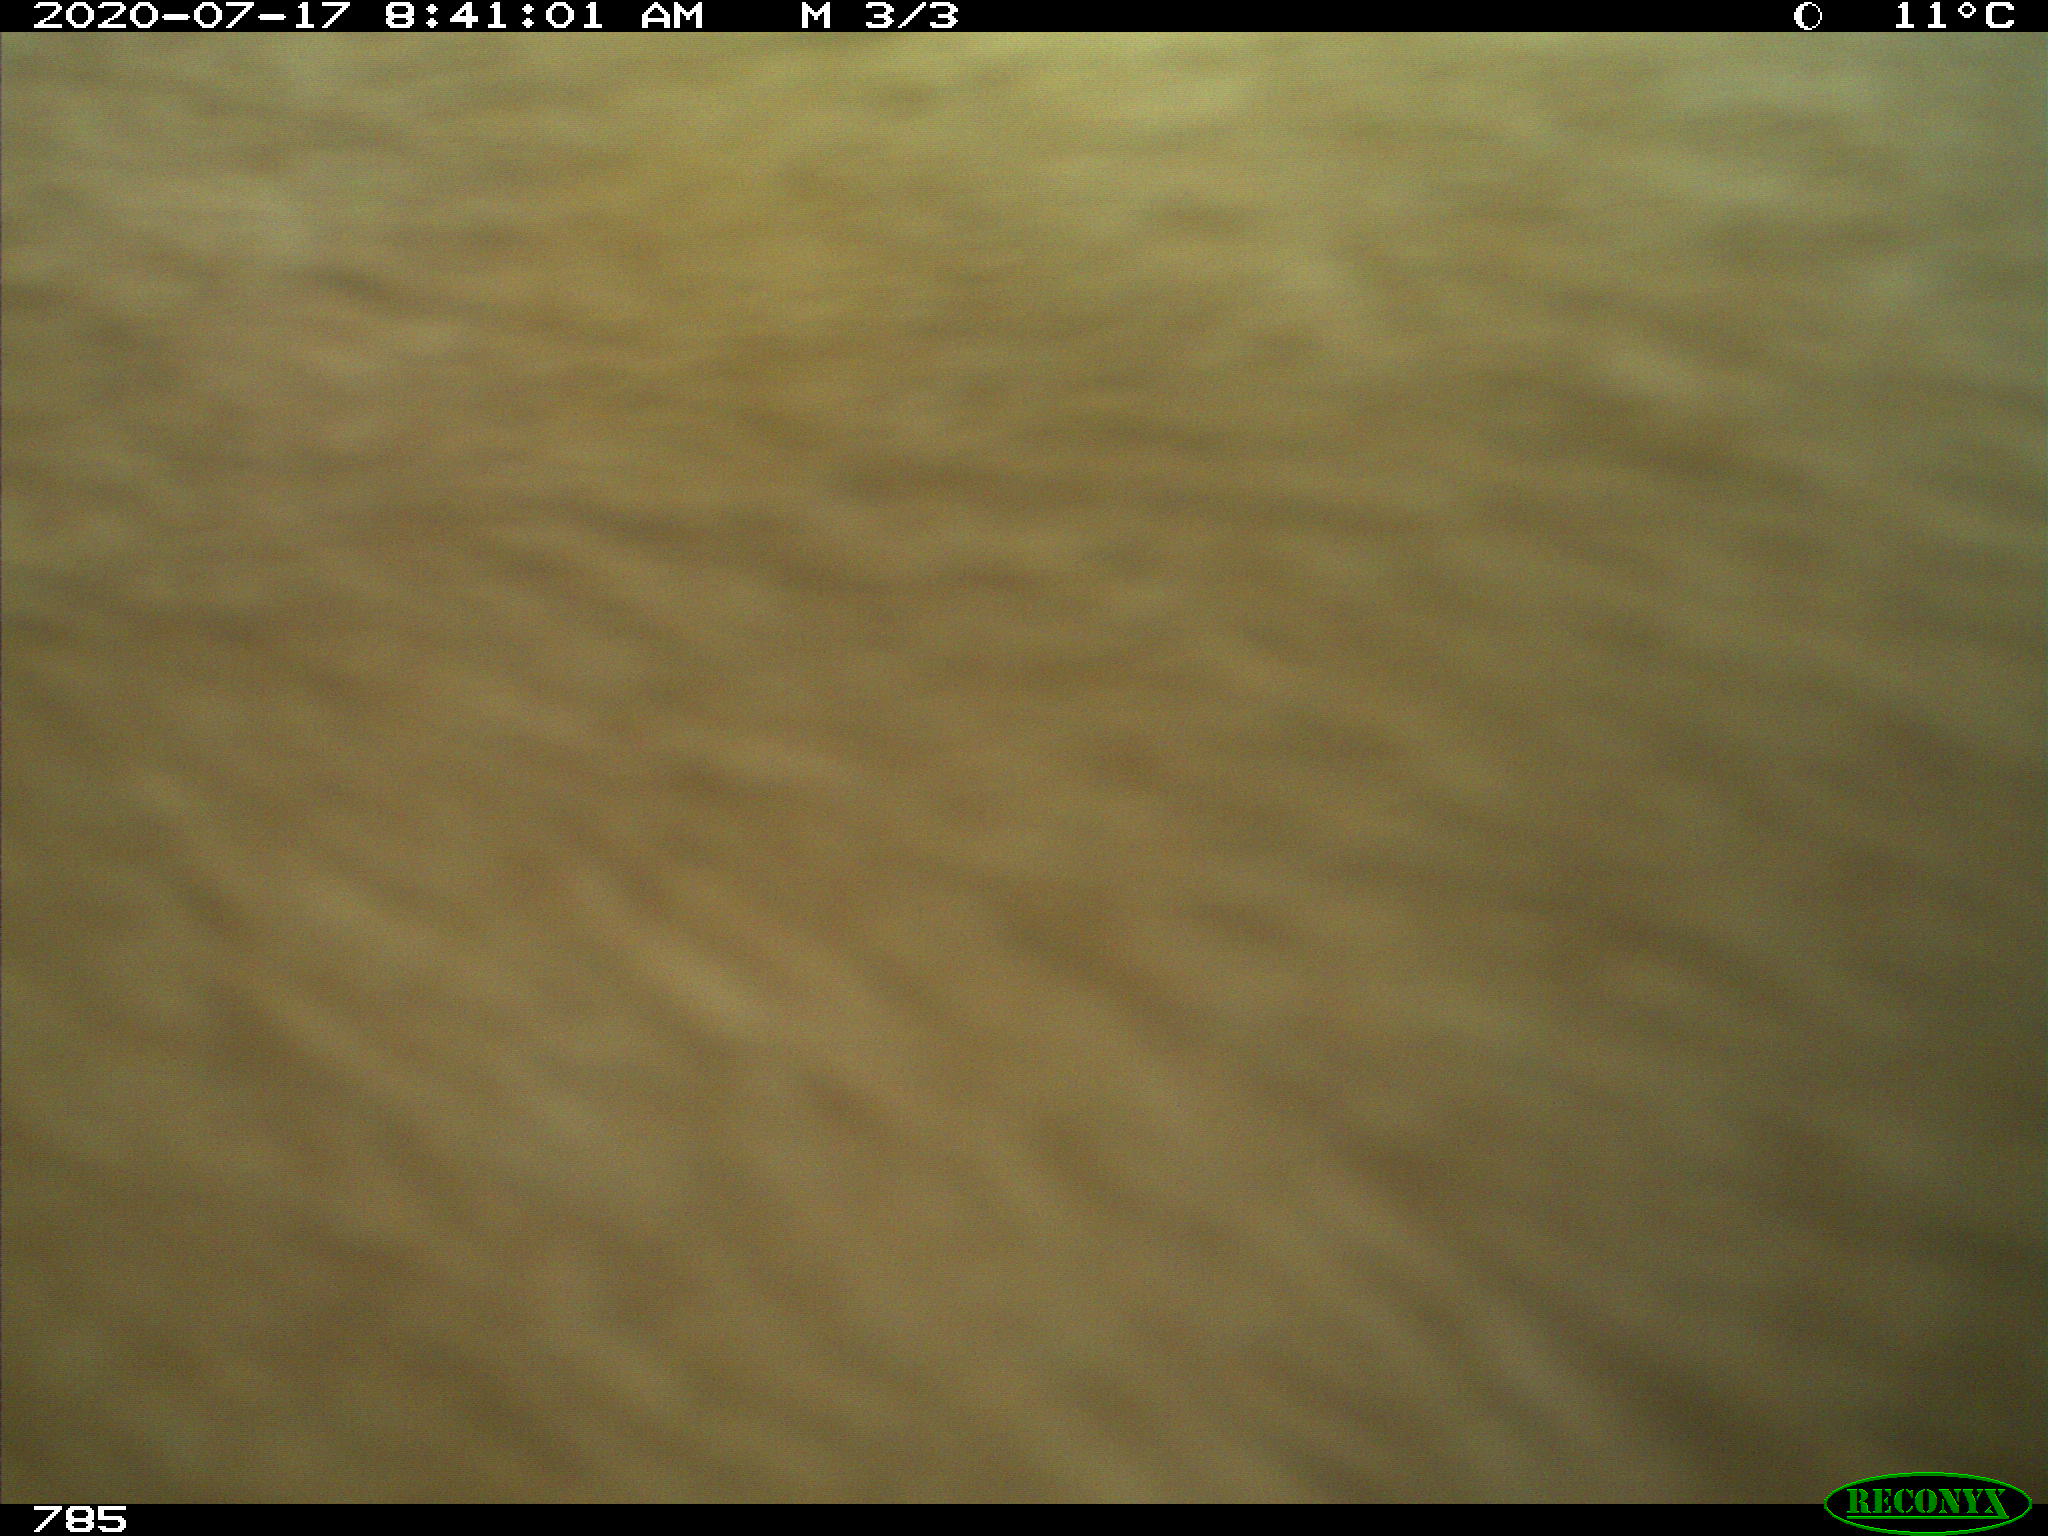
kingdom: Animalia
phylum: Chordata
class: Mammalia
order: Artiodactyla
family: Bovidae
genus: Bos
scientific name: Bos taurus
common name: Domesticated cattle
